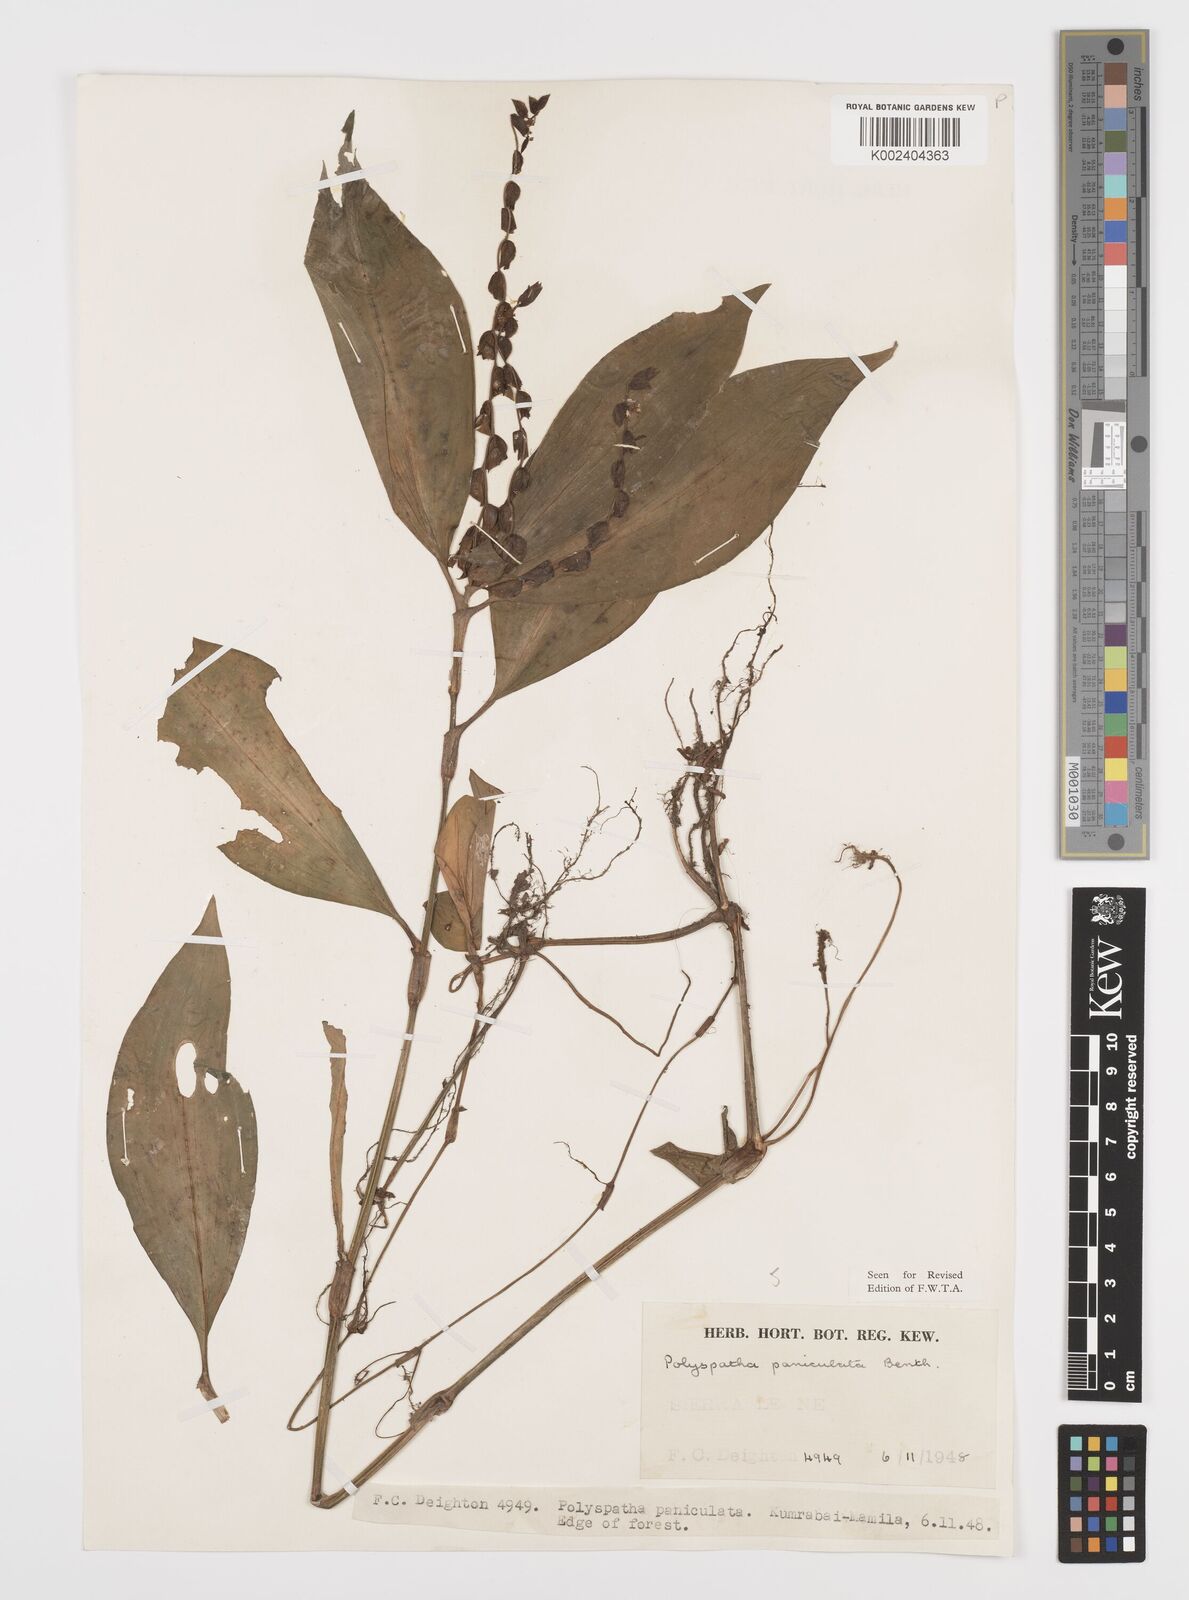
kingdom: Plantae
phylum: Tracheophyta
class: Liliopsida
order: Commelinales
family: Commelinaceae
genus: Polyspatha
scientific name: Polyspatha paniculata
